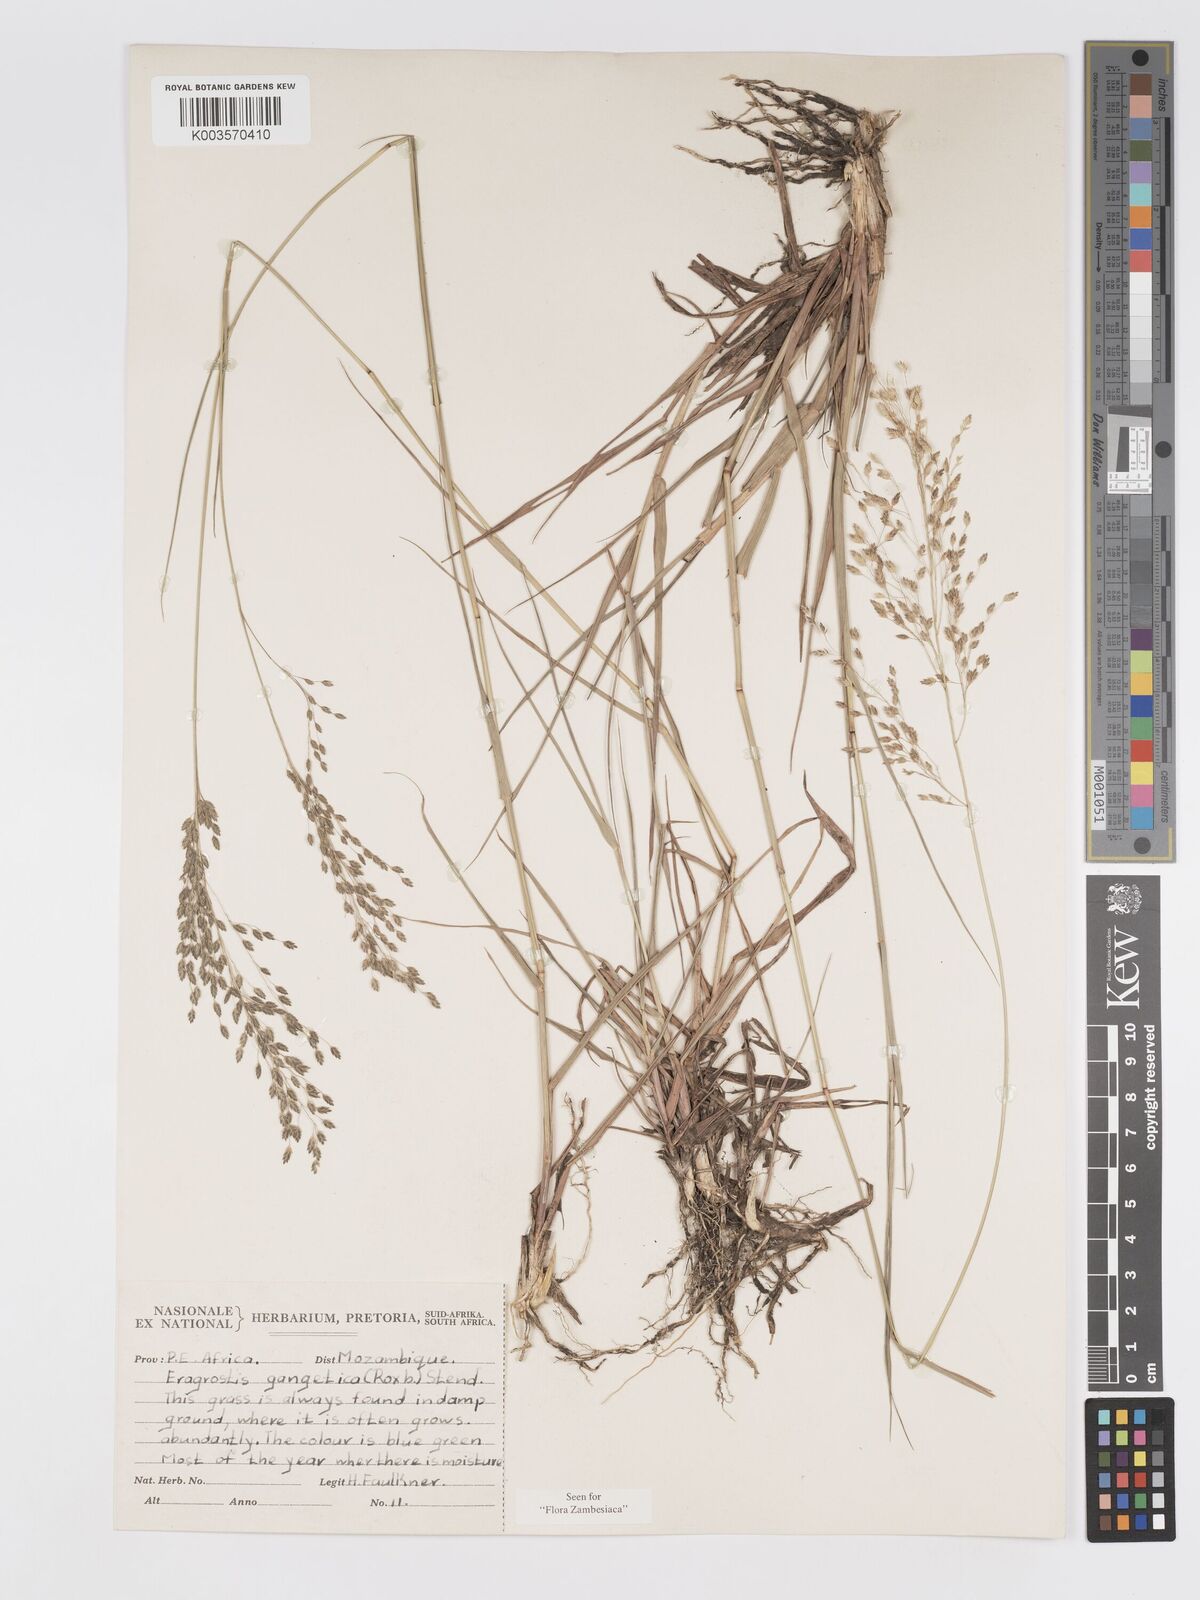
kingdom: Plantae
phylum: Tracheophyta
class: Liliopsida
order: Poales
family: Poaceae
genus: Eragrostis
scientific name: Eragrostis inamoena
